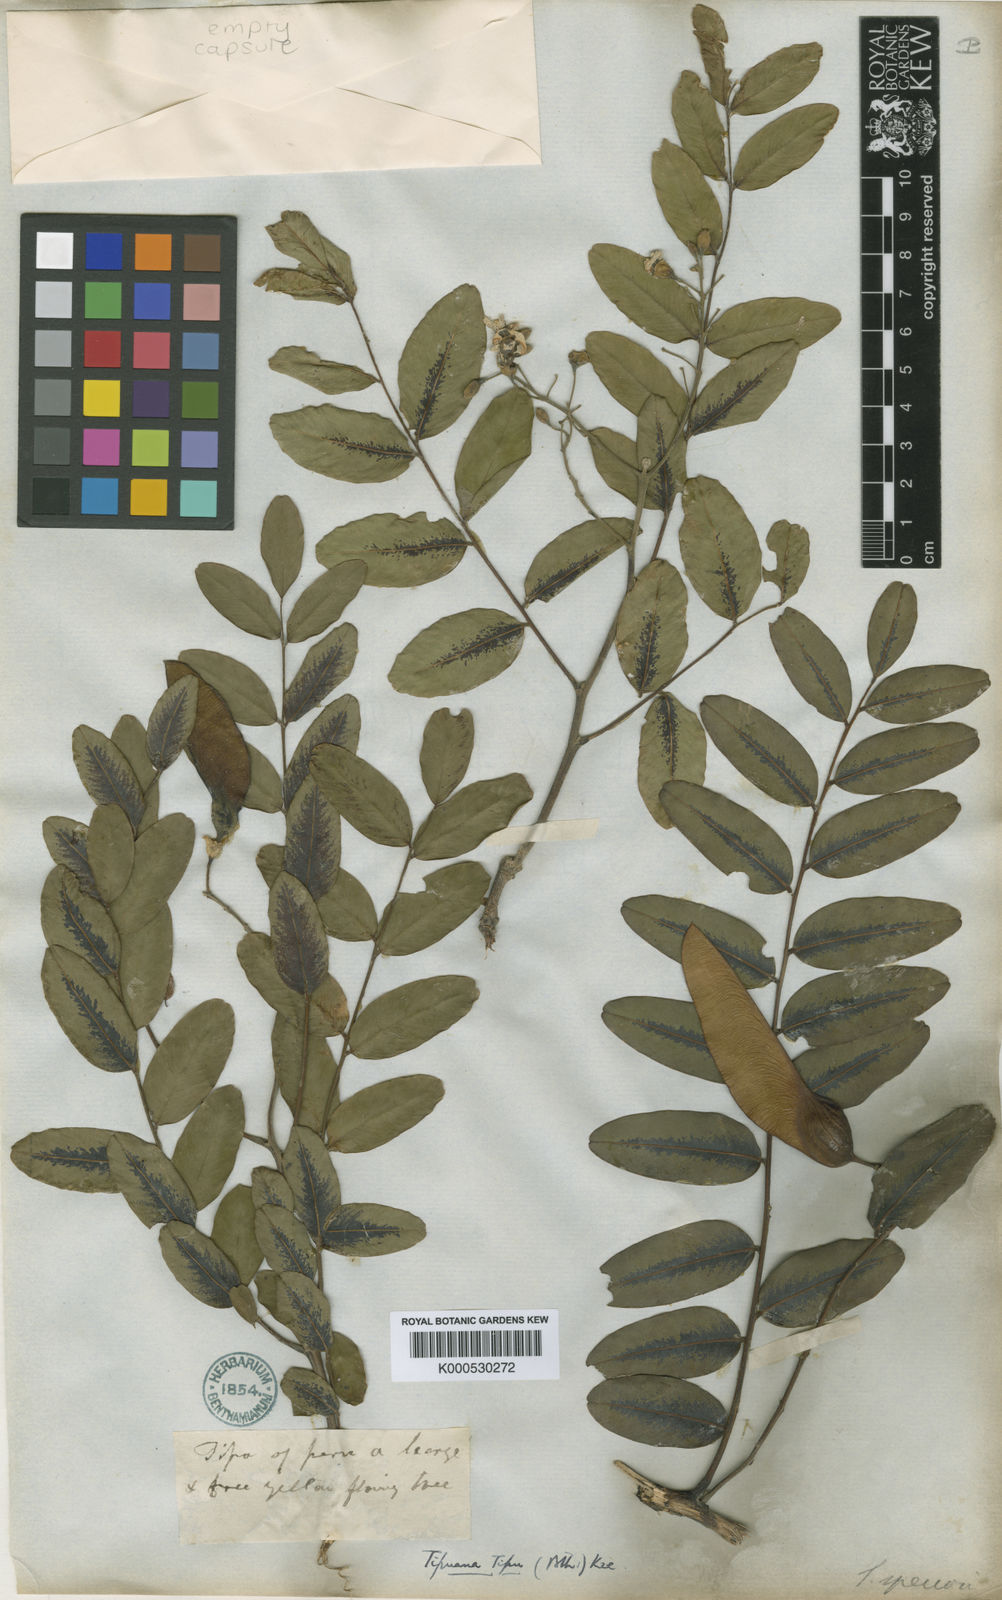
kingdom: Plantae
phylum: Tracheophyta
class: Magnoliopsida
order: Fabales
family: Fabaceae
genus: Tipuana
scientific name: Tipuana tipu
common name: Tiputree
